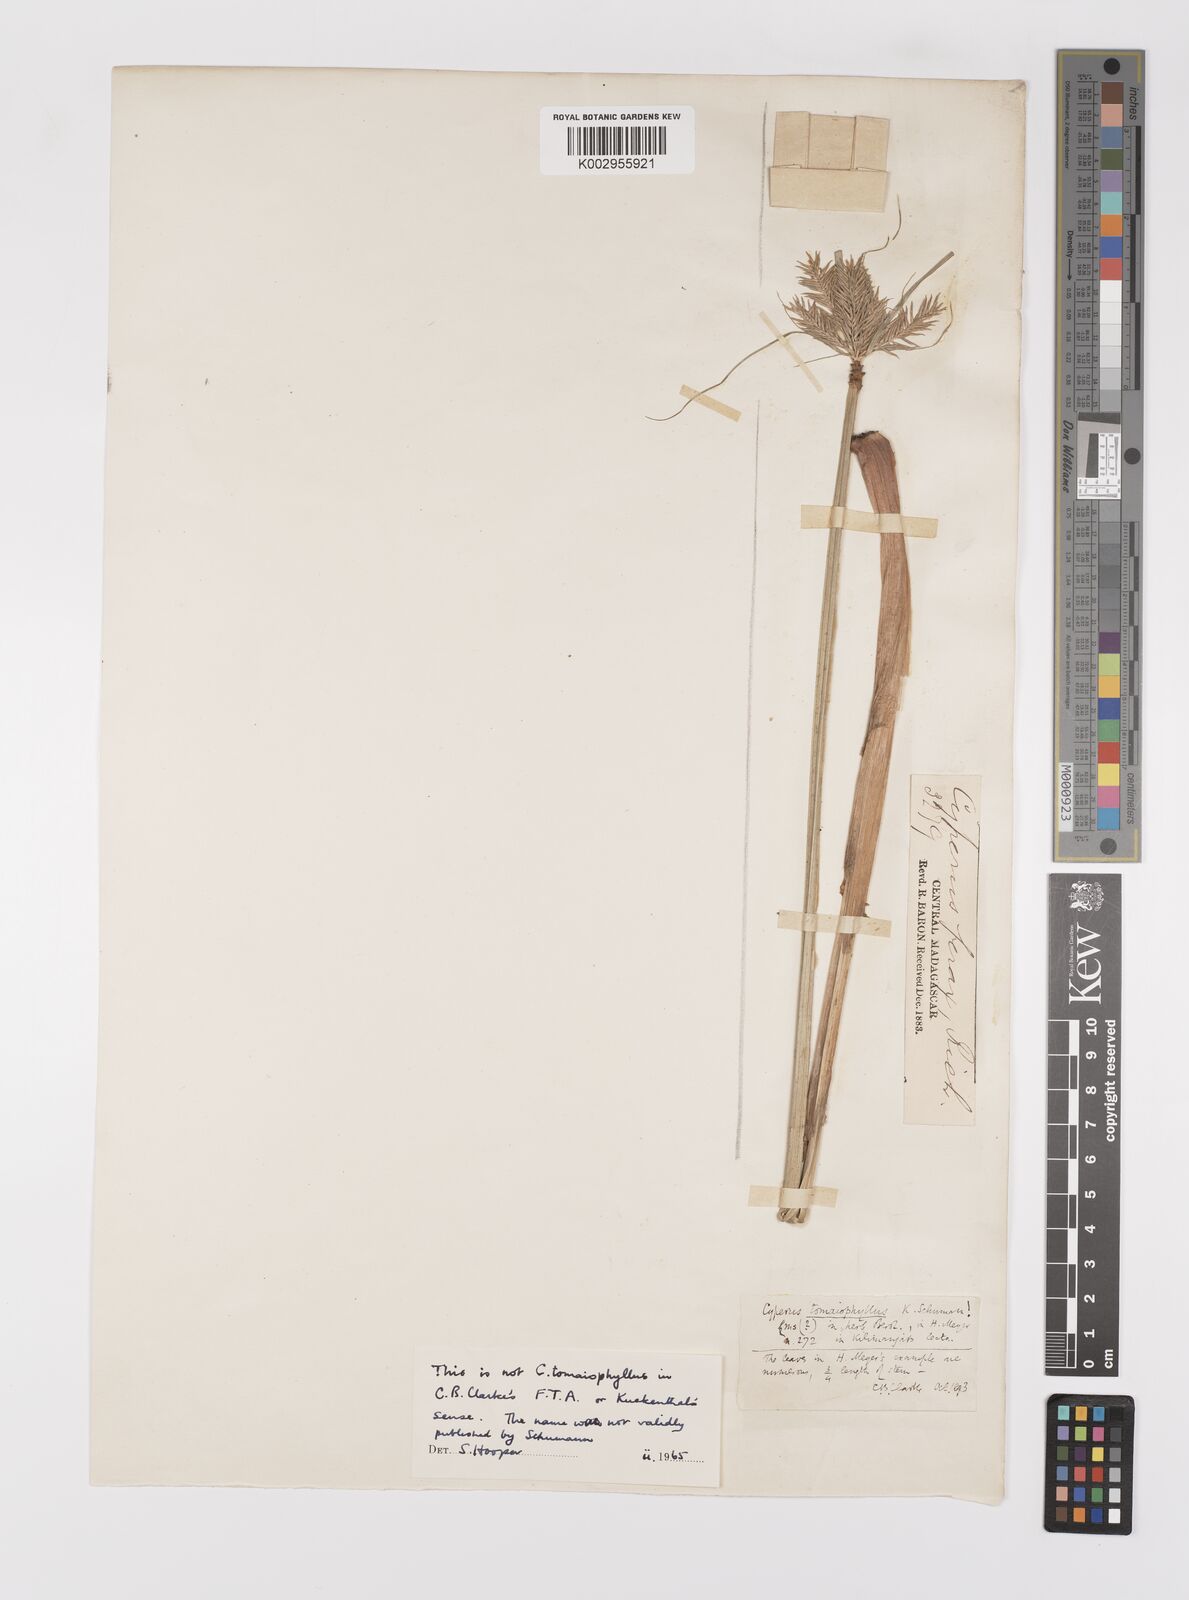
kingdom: Plantae
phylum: Tracheophyta
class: Liliopsida
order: Poales
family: Cyperaceae
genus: Cyperus
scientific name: Cyperus luteus
